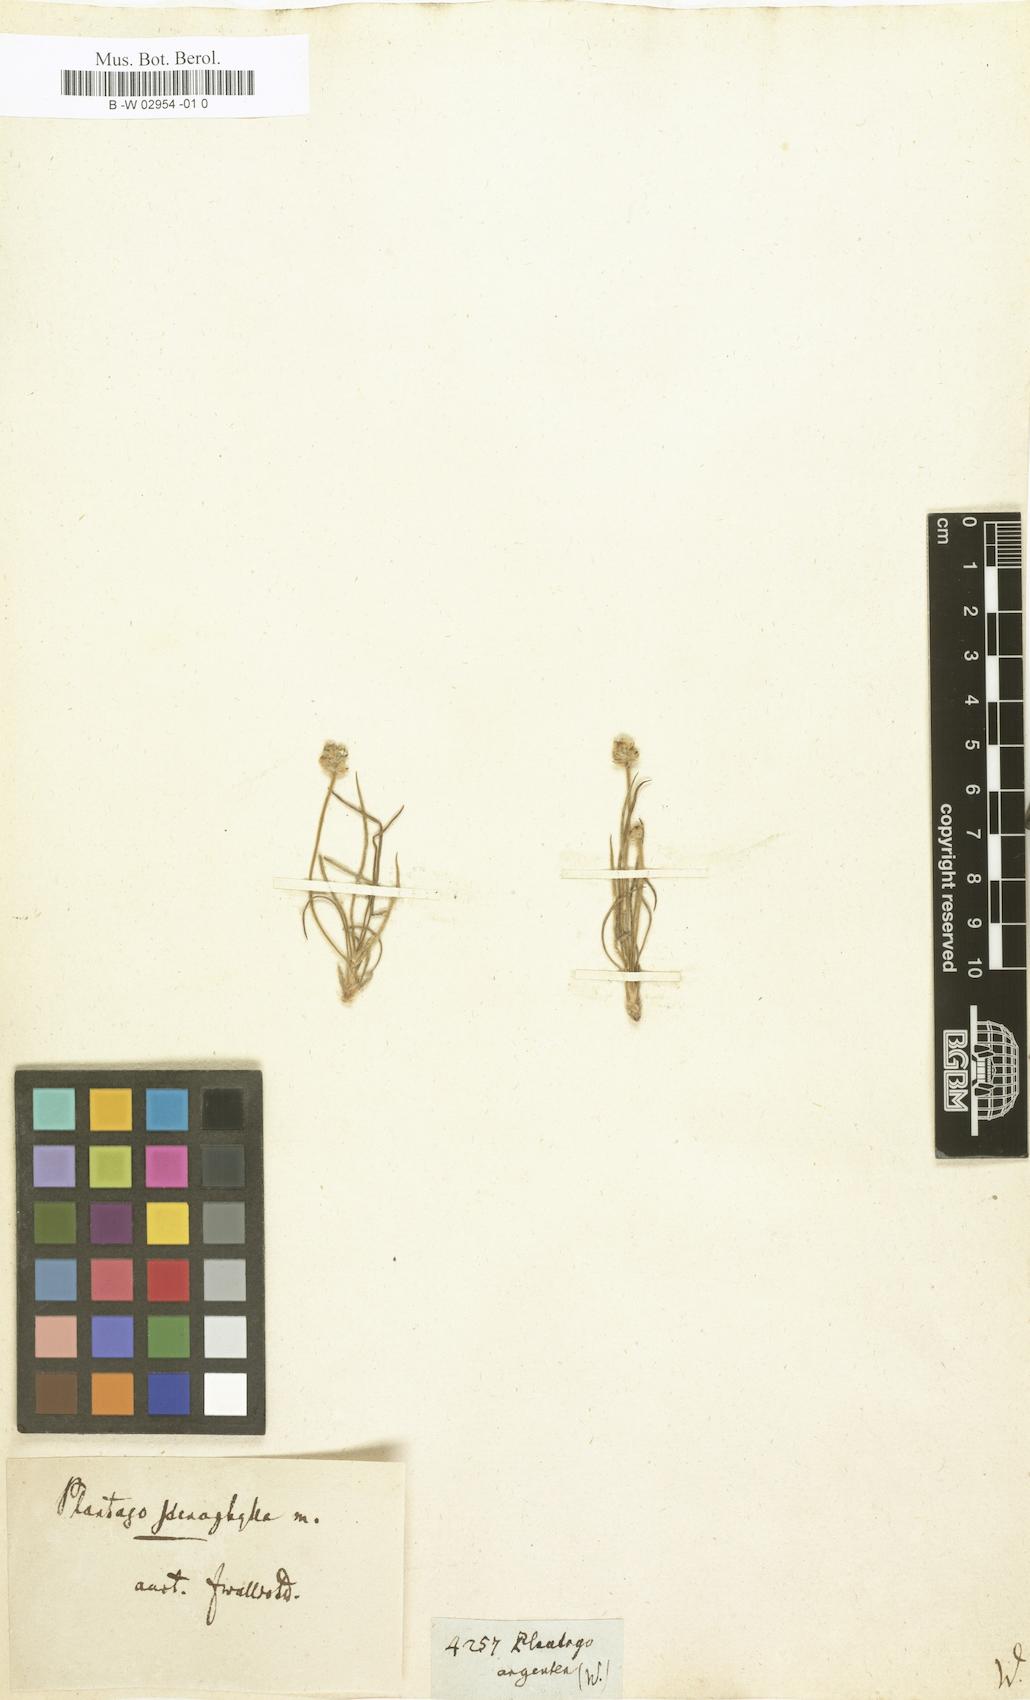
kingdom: Plantae
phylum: Tracheophyta
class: Magnoliopsida
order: Lamiales
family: Plantaginaceae
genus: Plantago
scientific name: Plantago argentea
